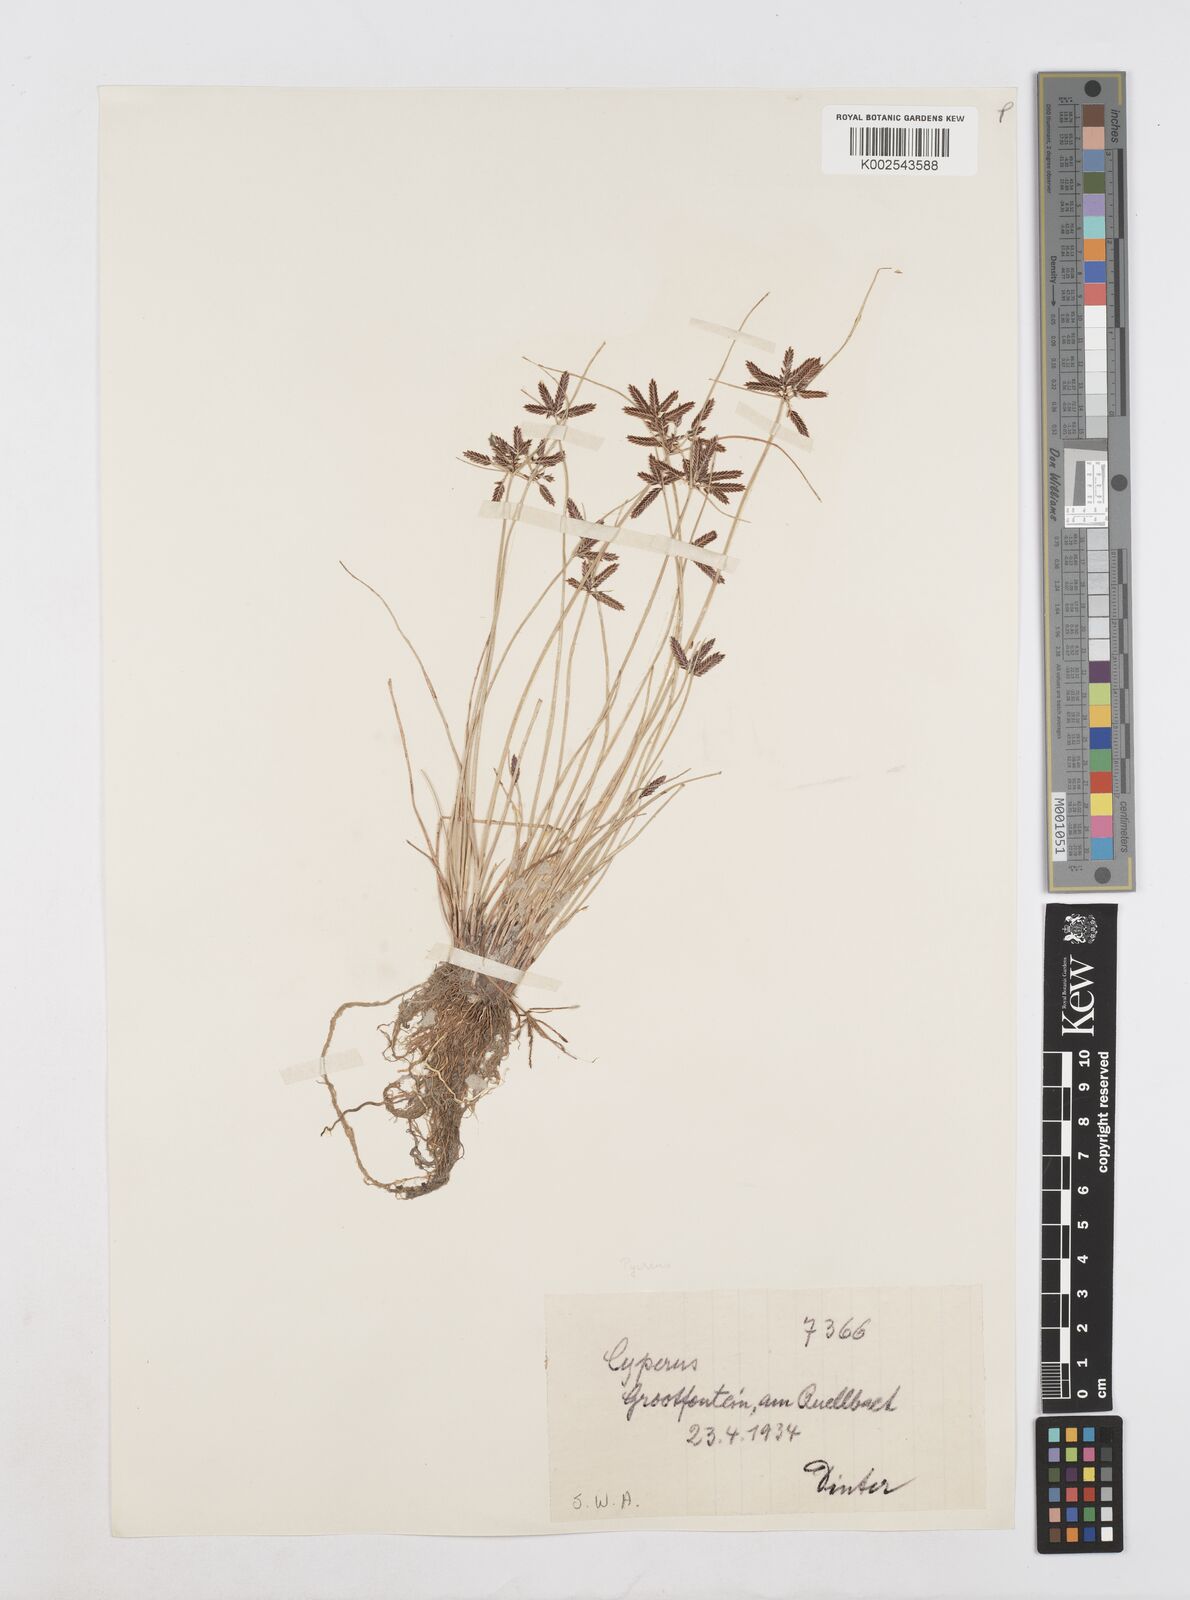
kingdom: Plantae
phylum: Tracheophyta
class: Liliopsida
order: Poales
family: Cyperaceae
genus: Cyperus
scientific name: Cyperus aethiops
